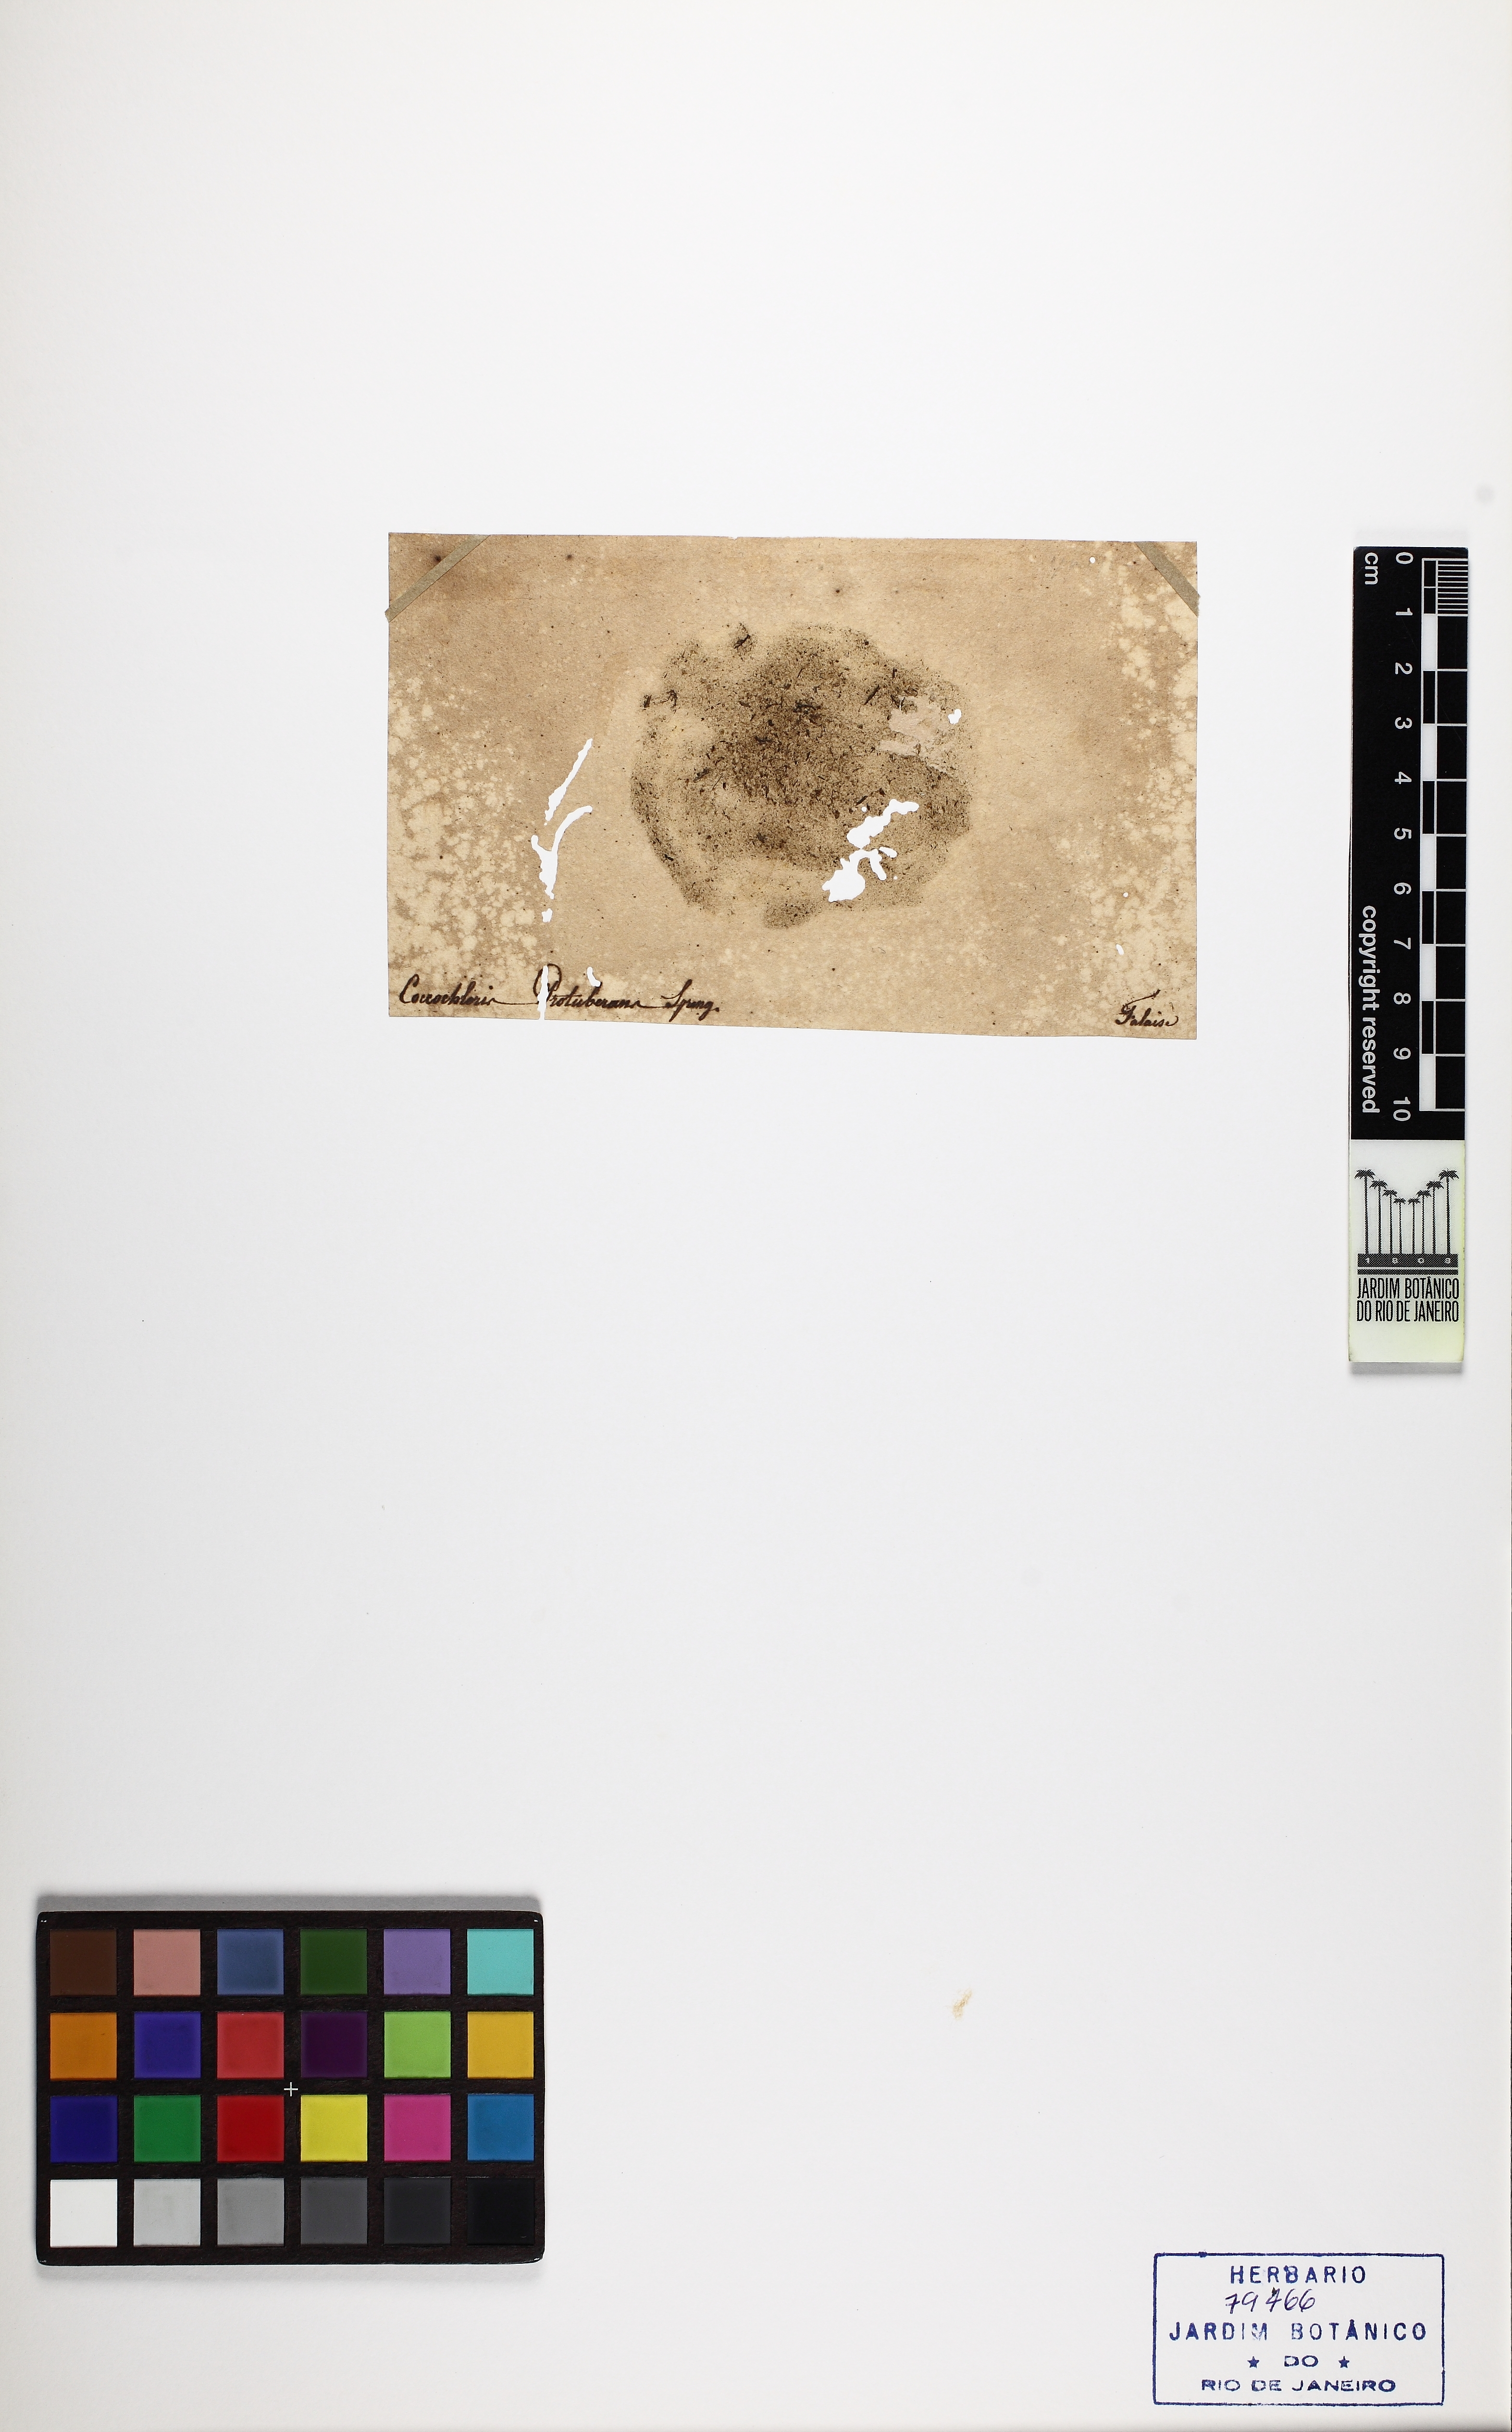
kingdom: Bacteria
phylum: Cyanobacteria
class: Cyanobacteriia
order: Cyanobacteriales
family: Chroococcaceae
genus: Coccochloris
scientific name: Coccochloris
